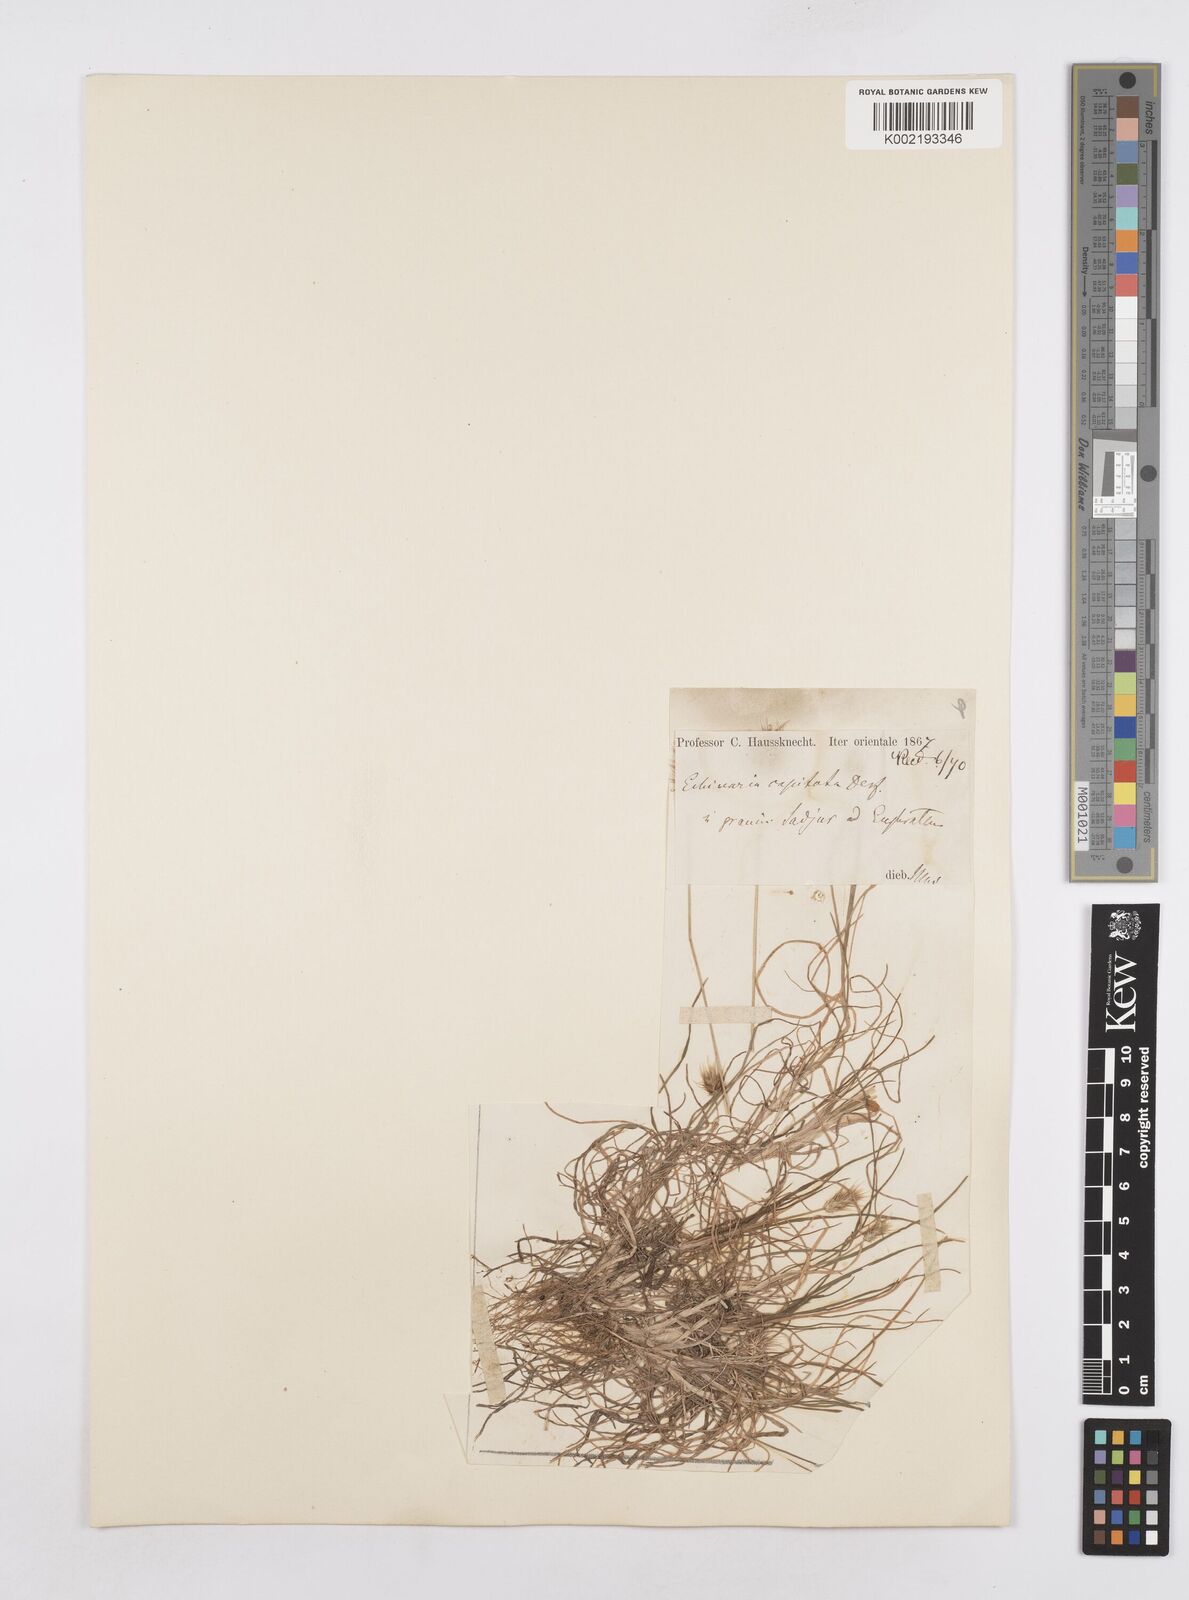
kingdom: Plantae
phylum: Tracheophyta
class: Liliopsida
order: Poales
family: Poaceae
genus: Echinaria
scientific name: Echinaria capitata
